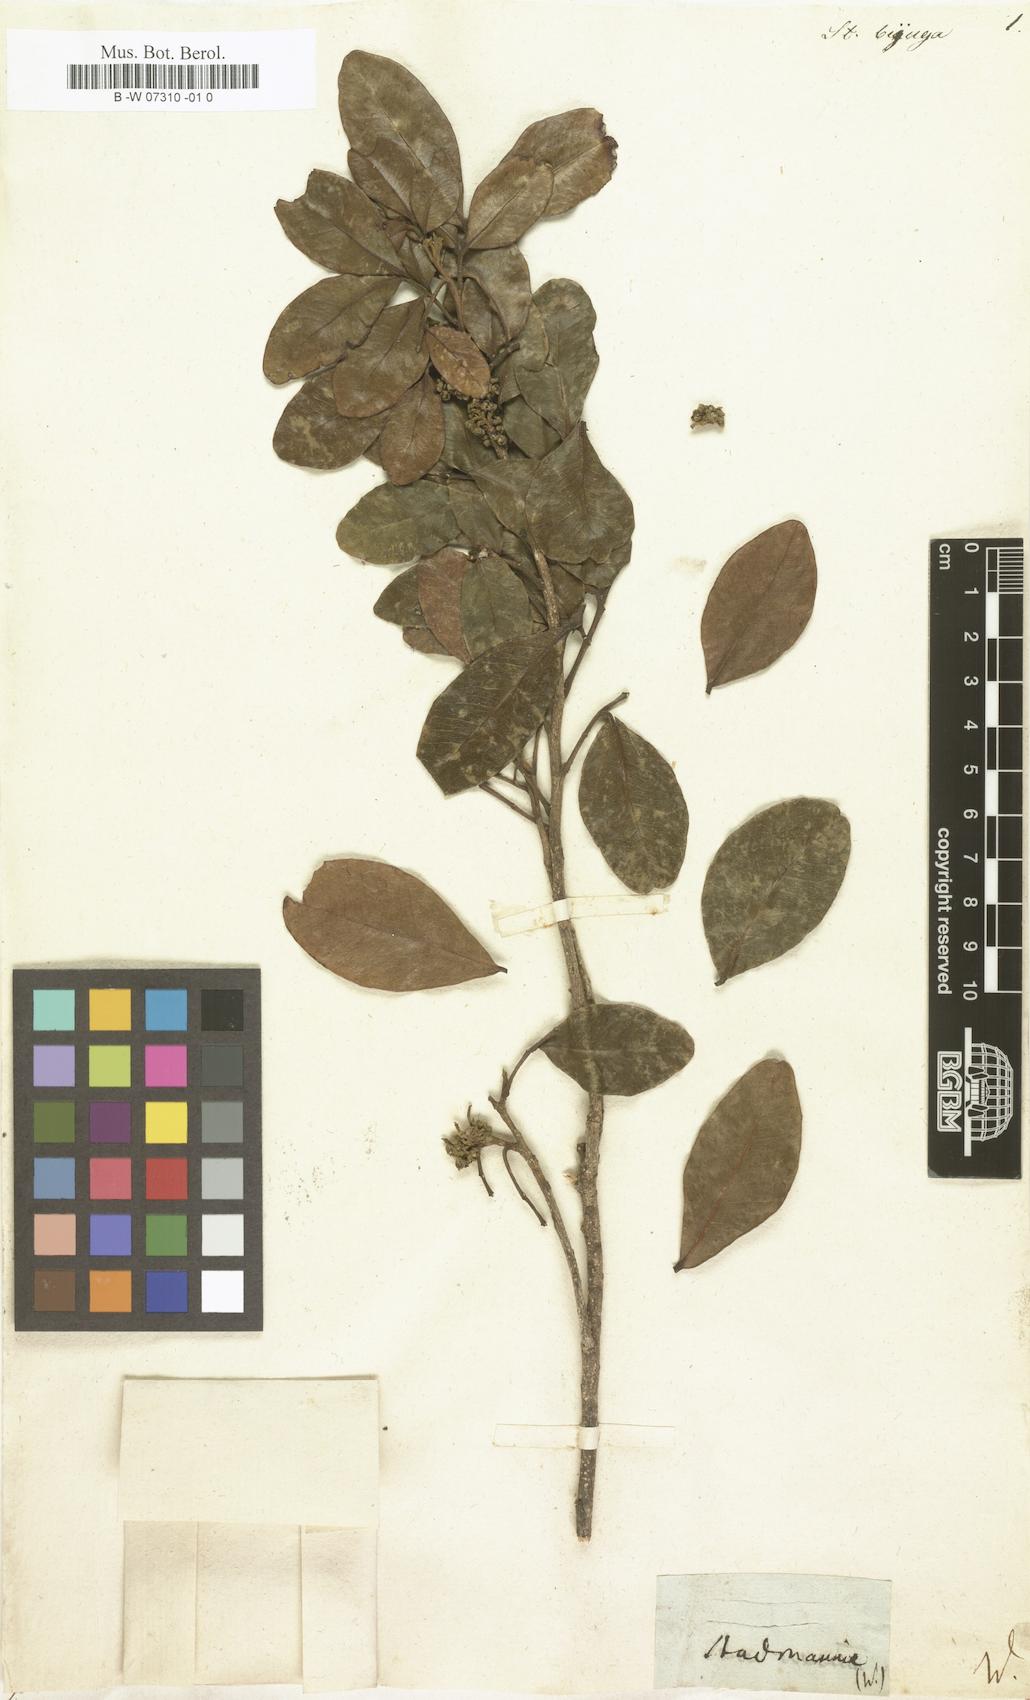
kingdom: Plantae
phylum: Tracheophyta
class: Magnoliopsida
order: Sapindales
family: Sapindaceae
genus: Melicoccus
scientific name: Melicoccus bijugatus
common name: Spanish lime
